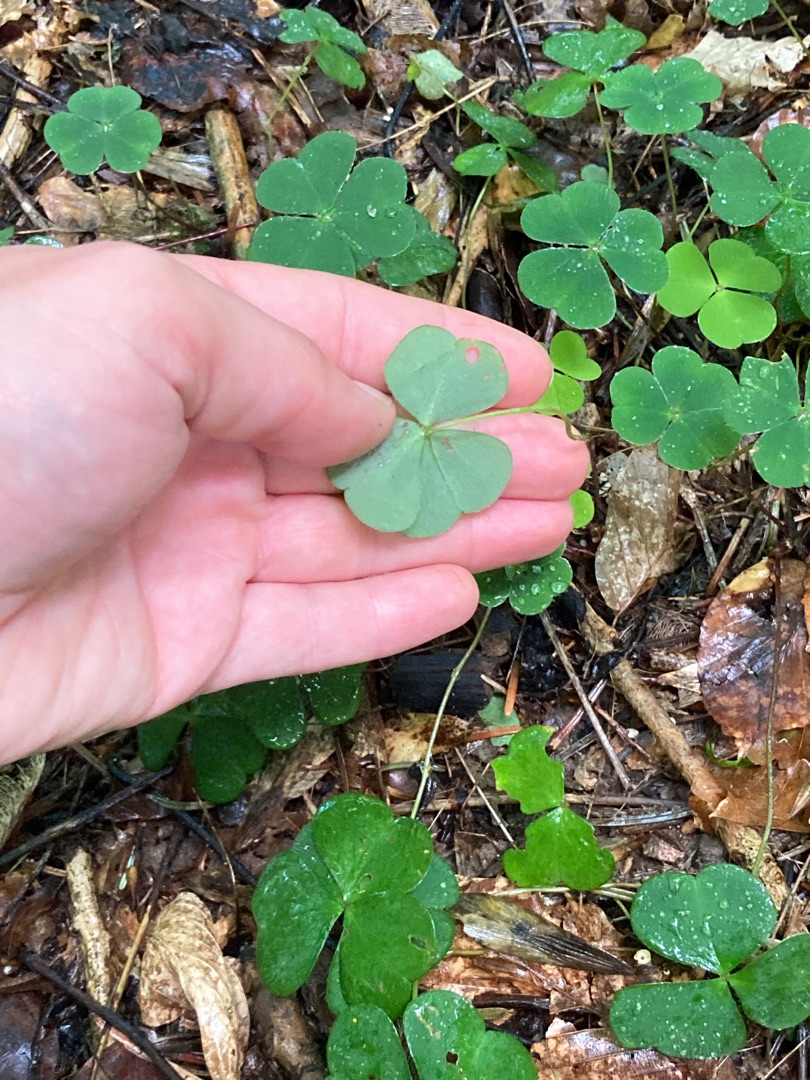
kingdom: Plantae
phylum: Tracheophyta
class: Magnoliopsida
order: Oxalidales
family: Oxalidaceae
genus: Oxalis
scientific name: Oxalis acetosella
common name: Skovsyre
